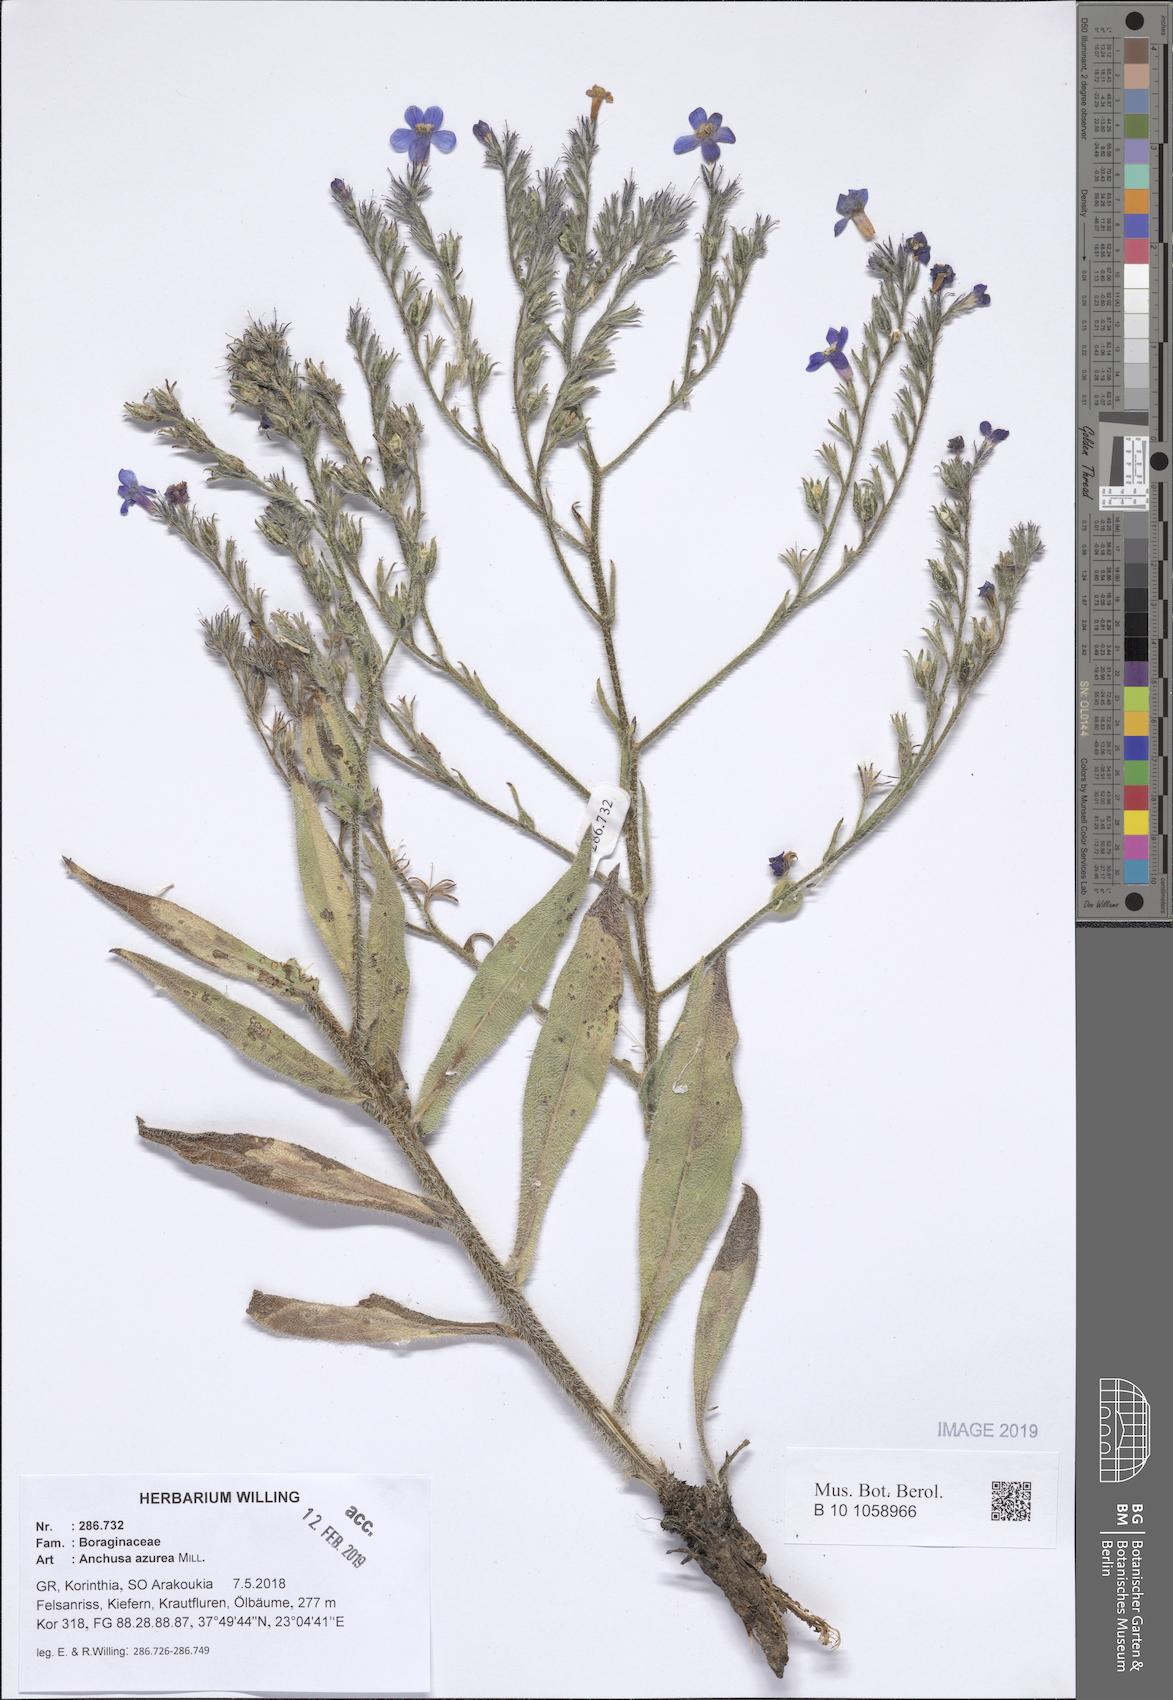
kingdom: Plantae
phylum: Tracheophyta
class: Magnoliopsida
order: Boraginales
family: Boraginaceae
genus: Anchusa
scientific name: Anchusa azurea
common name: Garden anchusa
